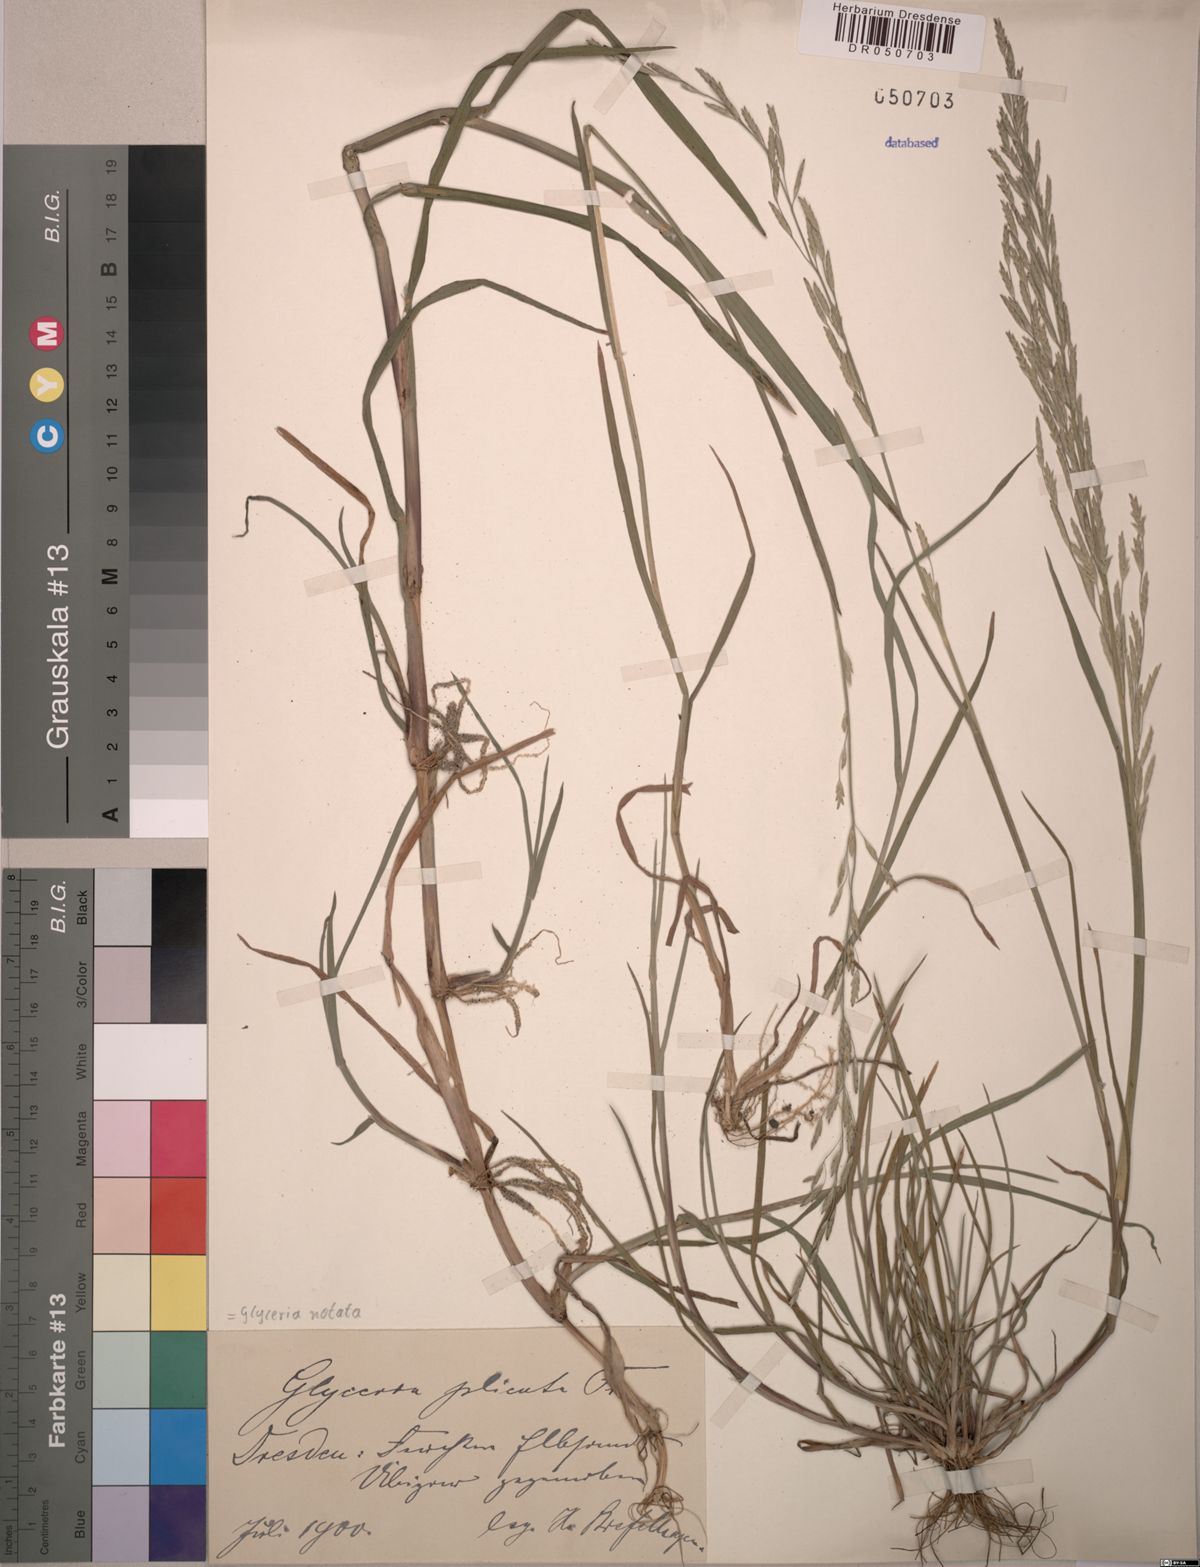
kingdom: Plantae
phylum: Tracheophyta
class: Liliopsida
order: Poales
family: Poaceae
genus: Glyceria
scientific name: Glyceria notata
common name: Plicate sweet-grass
